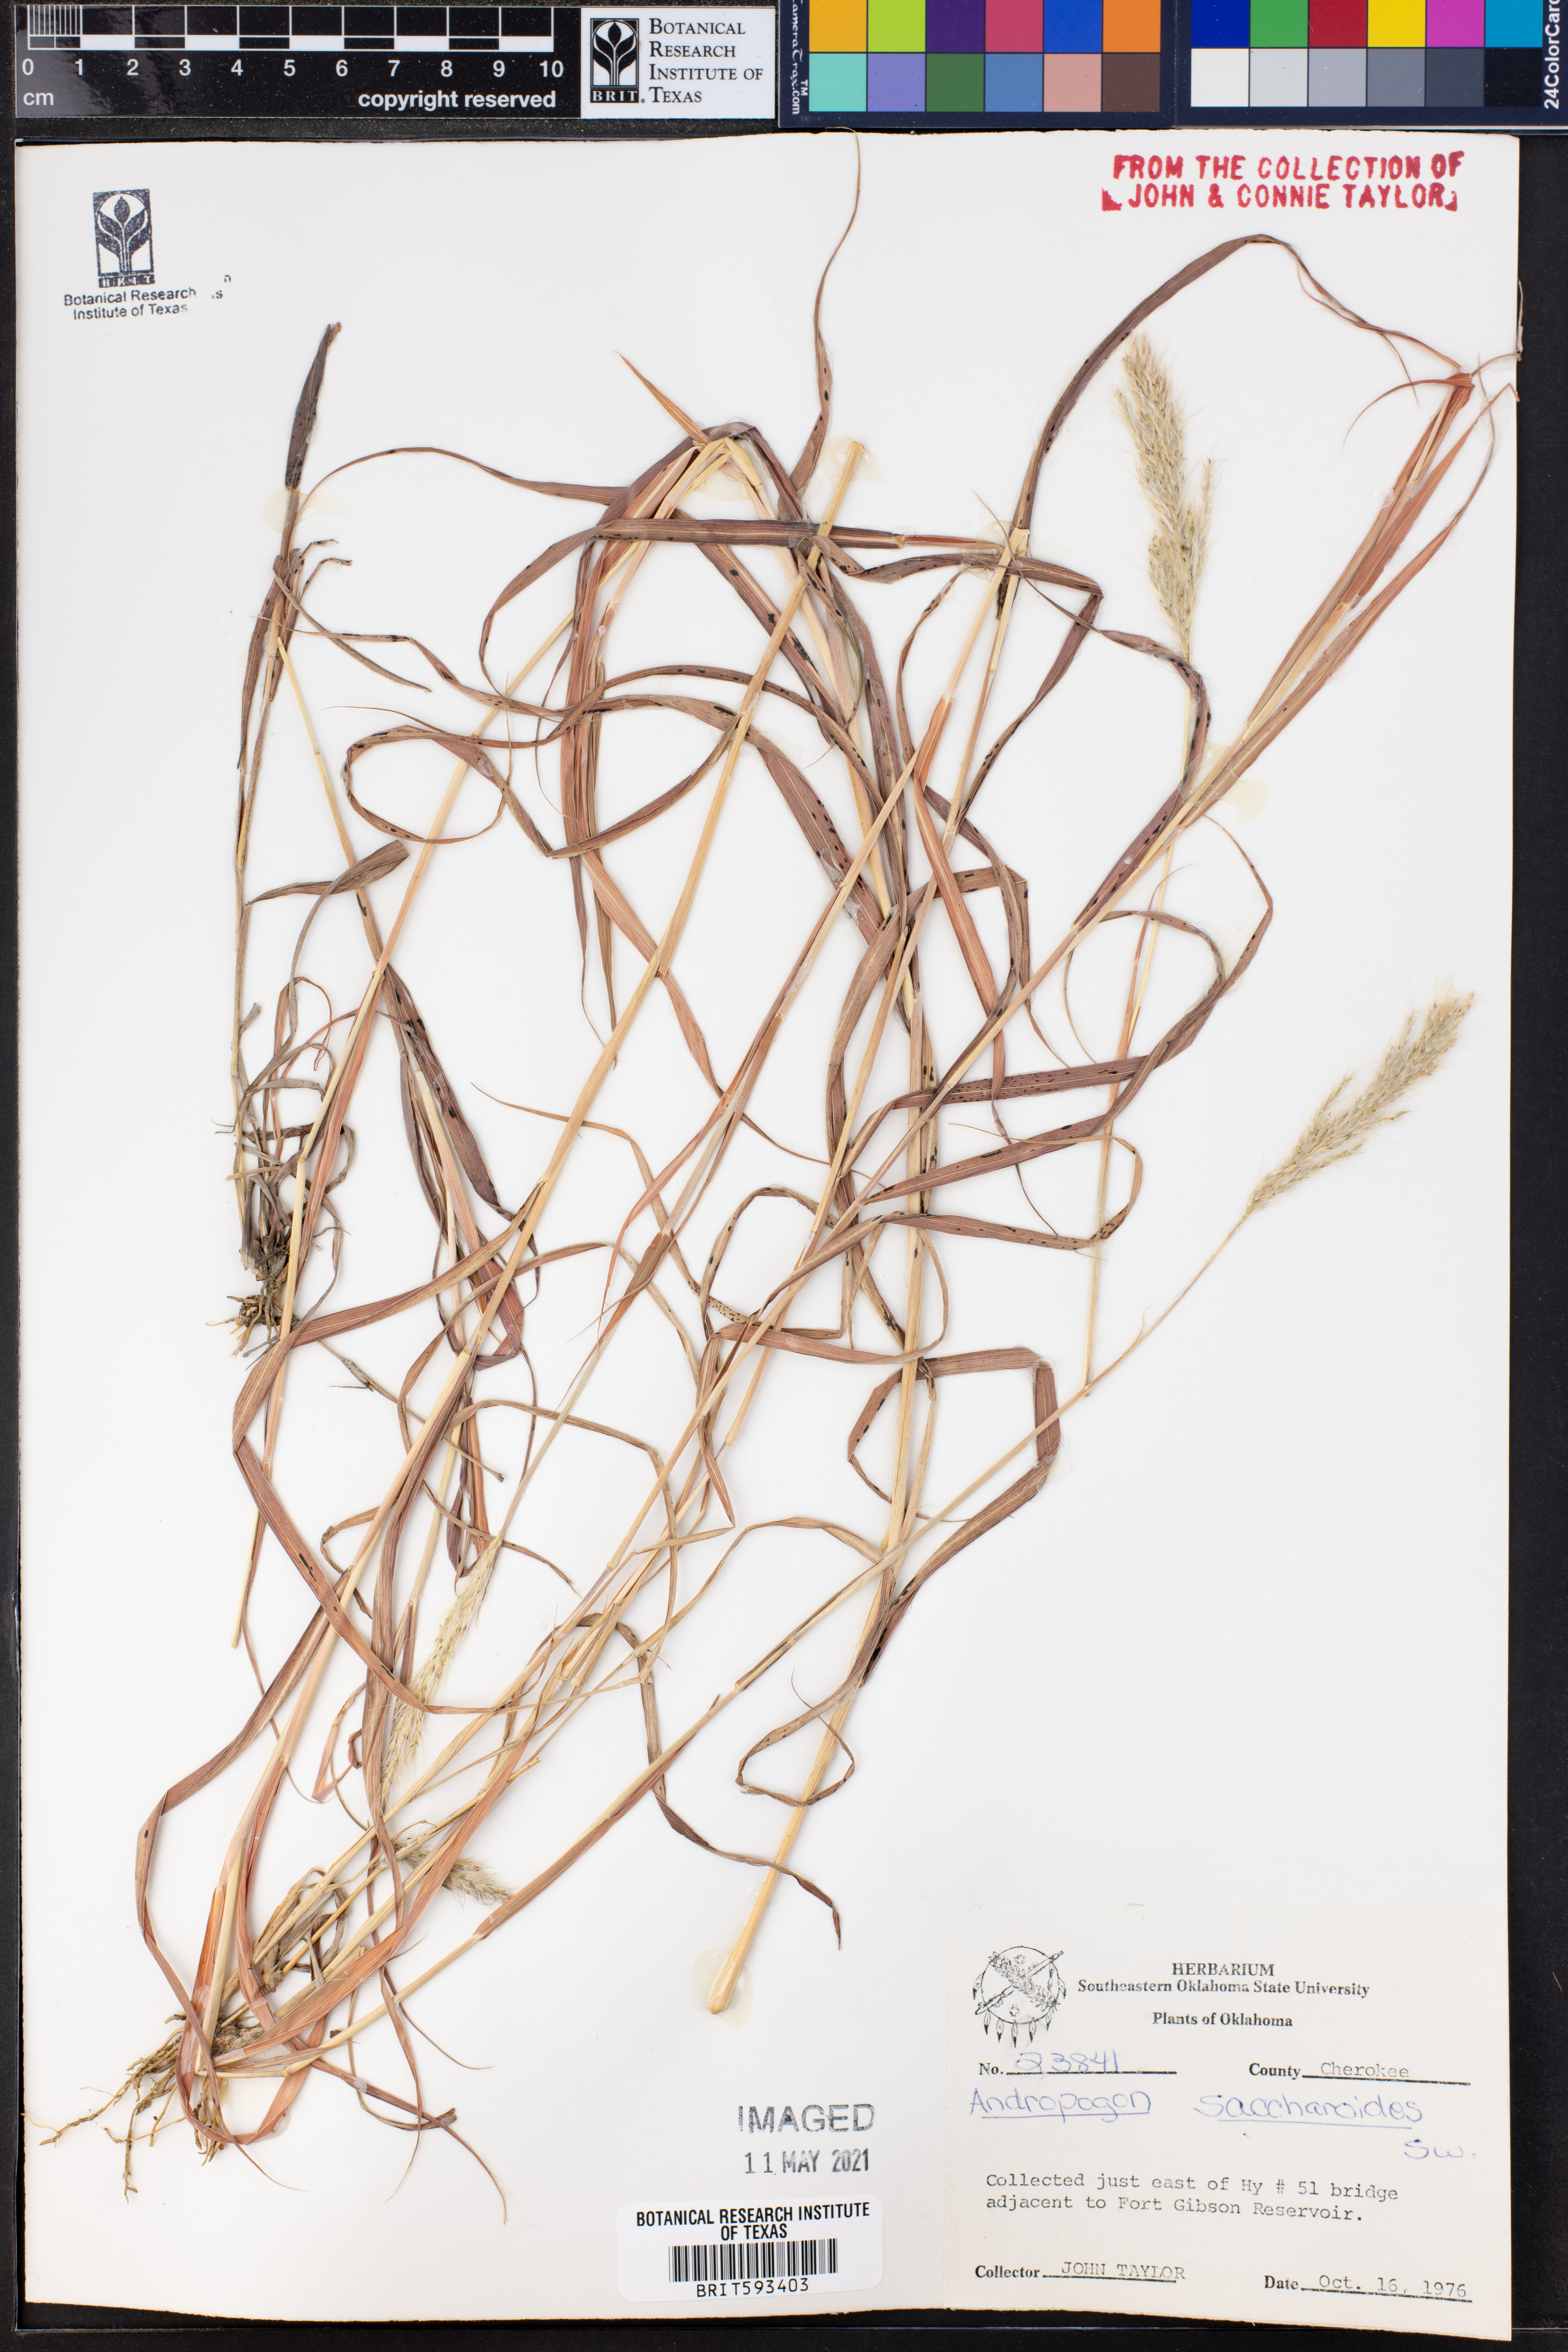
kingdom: Plantae
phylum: Tracheophyta
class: Liliopsida
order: Poales
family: Poaceae
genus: Bothriochloa
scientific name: Bothriochloa saccharoides
